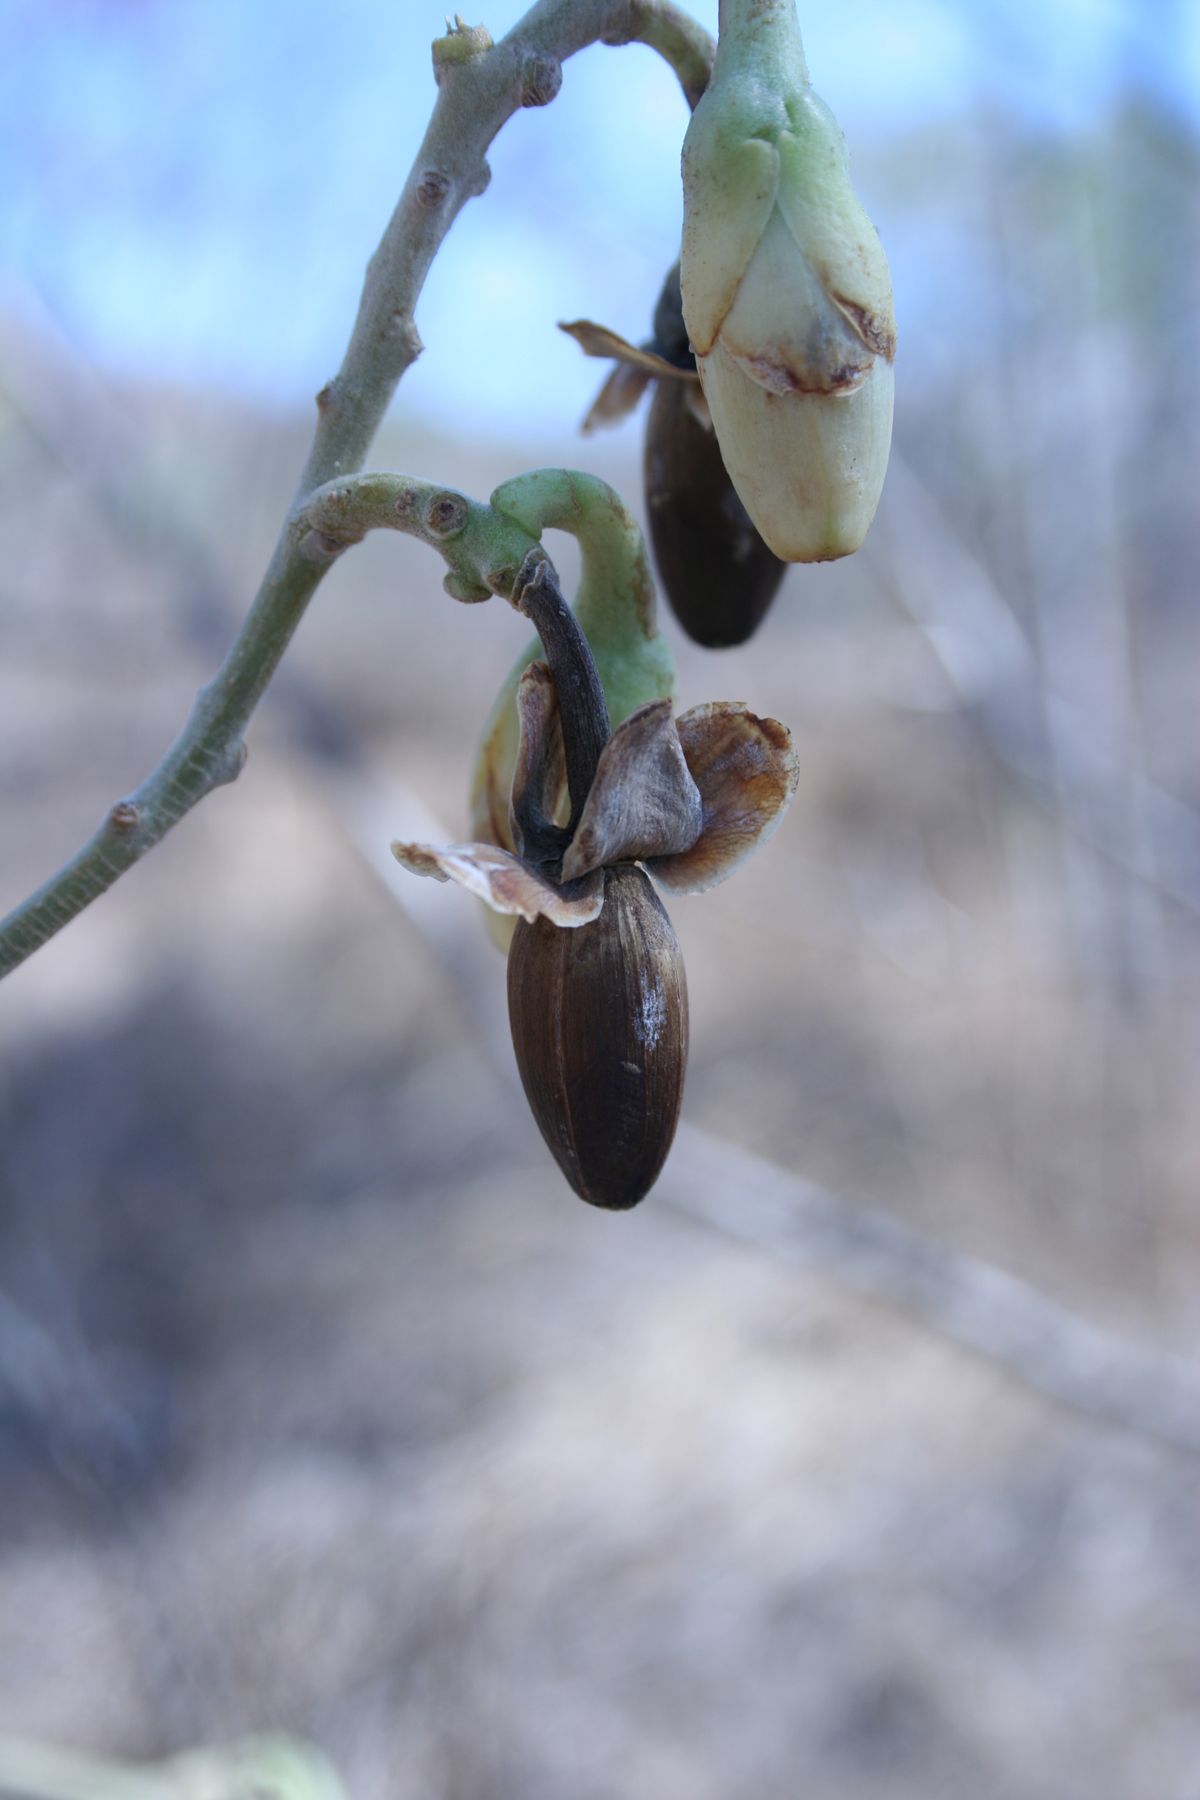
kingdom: Plantae
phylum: Tracheophyta
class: Magnoliopsida
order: Solanales
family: Convolvulaceae
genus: Ipomoea
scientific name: Ipomoea wolcottiana
